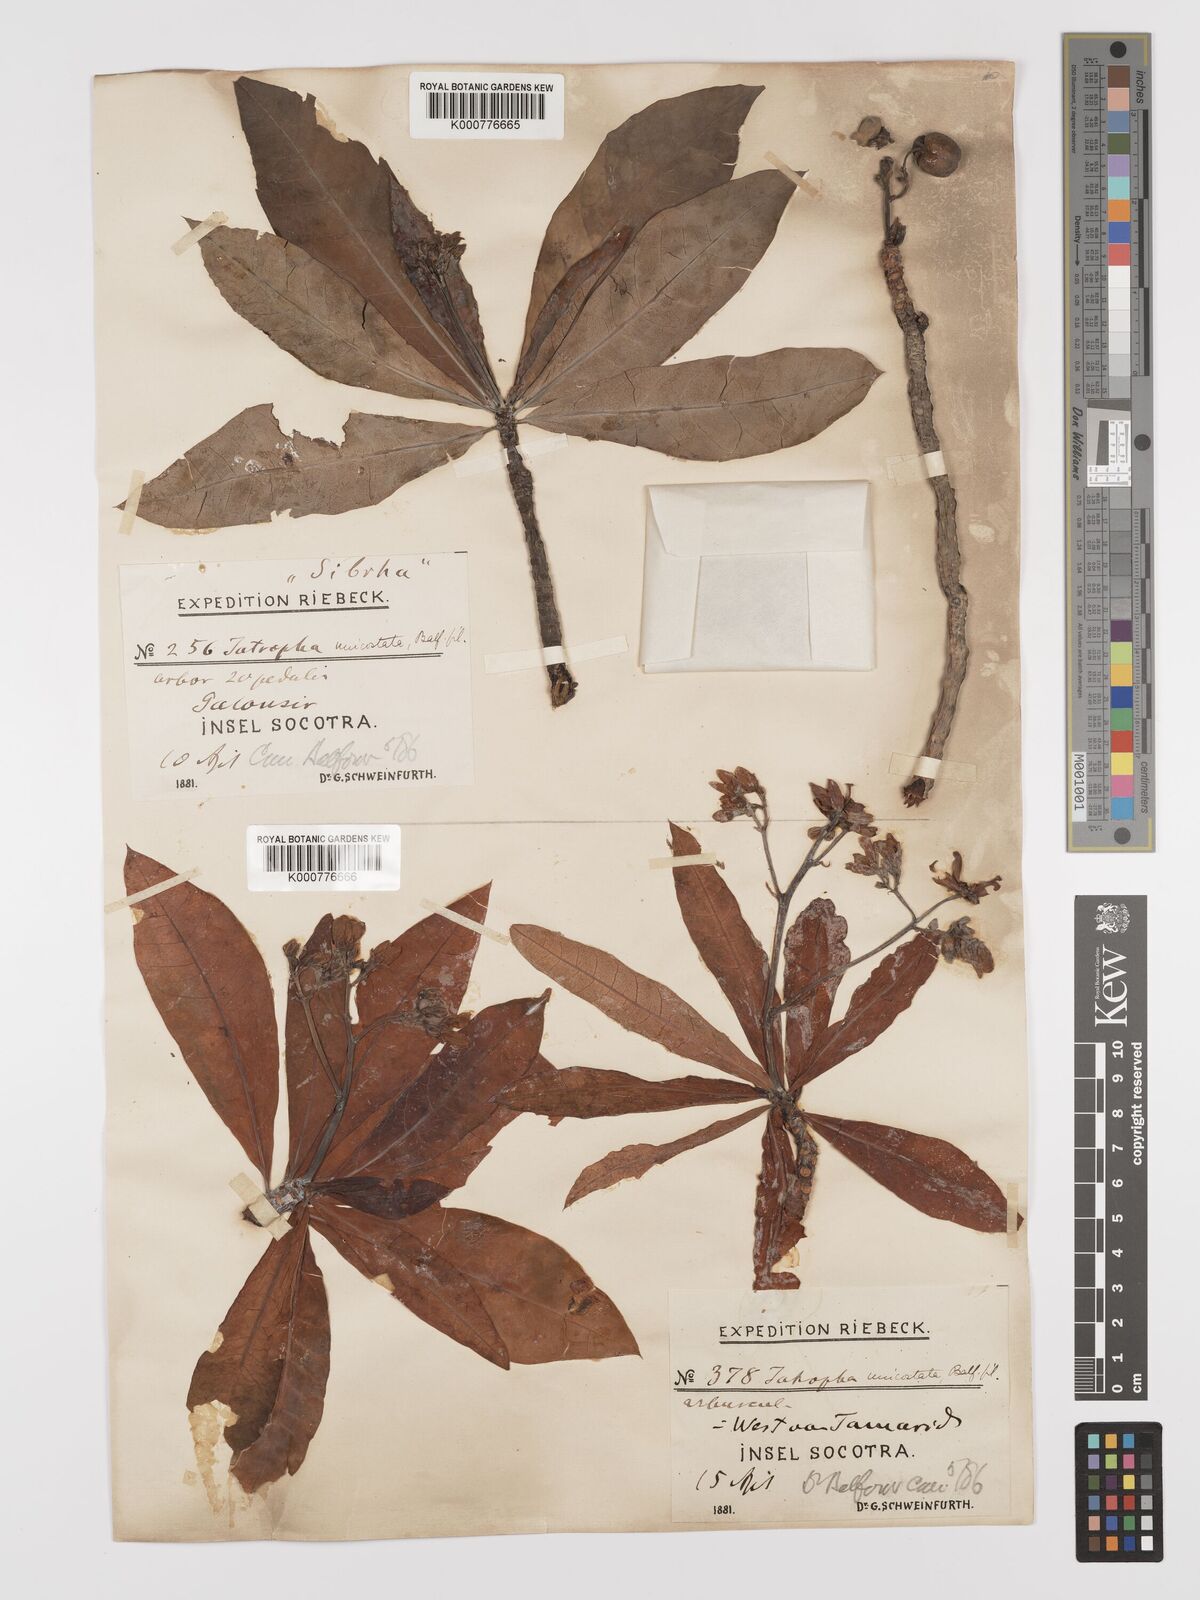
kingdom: Plantae
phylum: Tracheophyta
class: Magnoliopsida
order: Malpighiales
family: Euphorbiaceae
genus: Jatropha
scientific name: Jatropha unicostata
